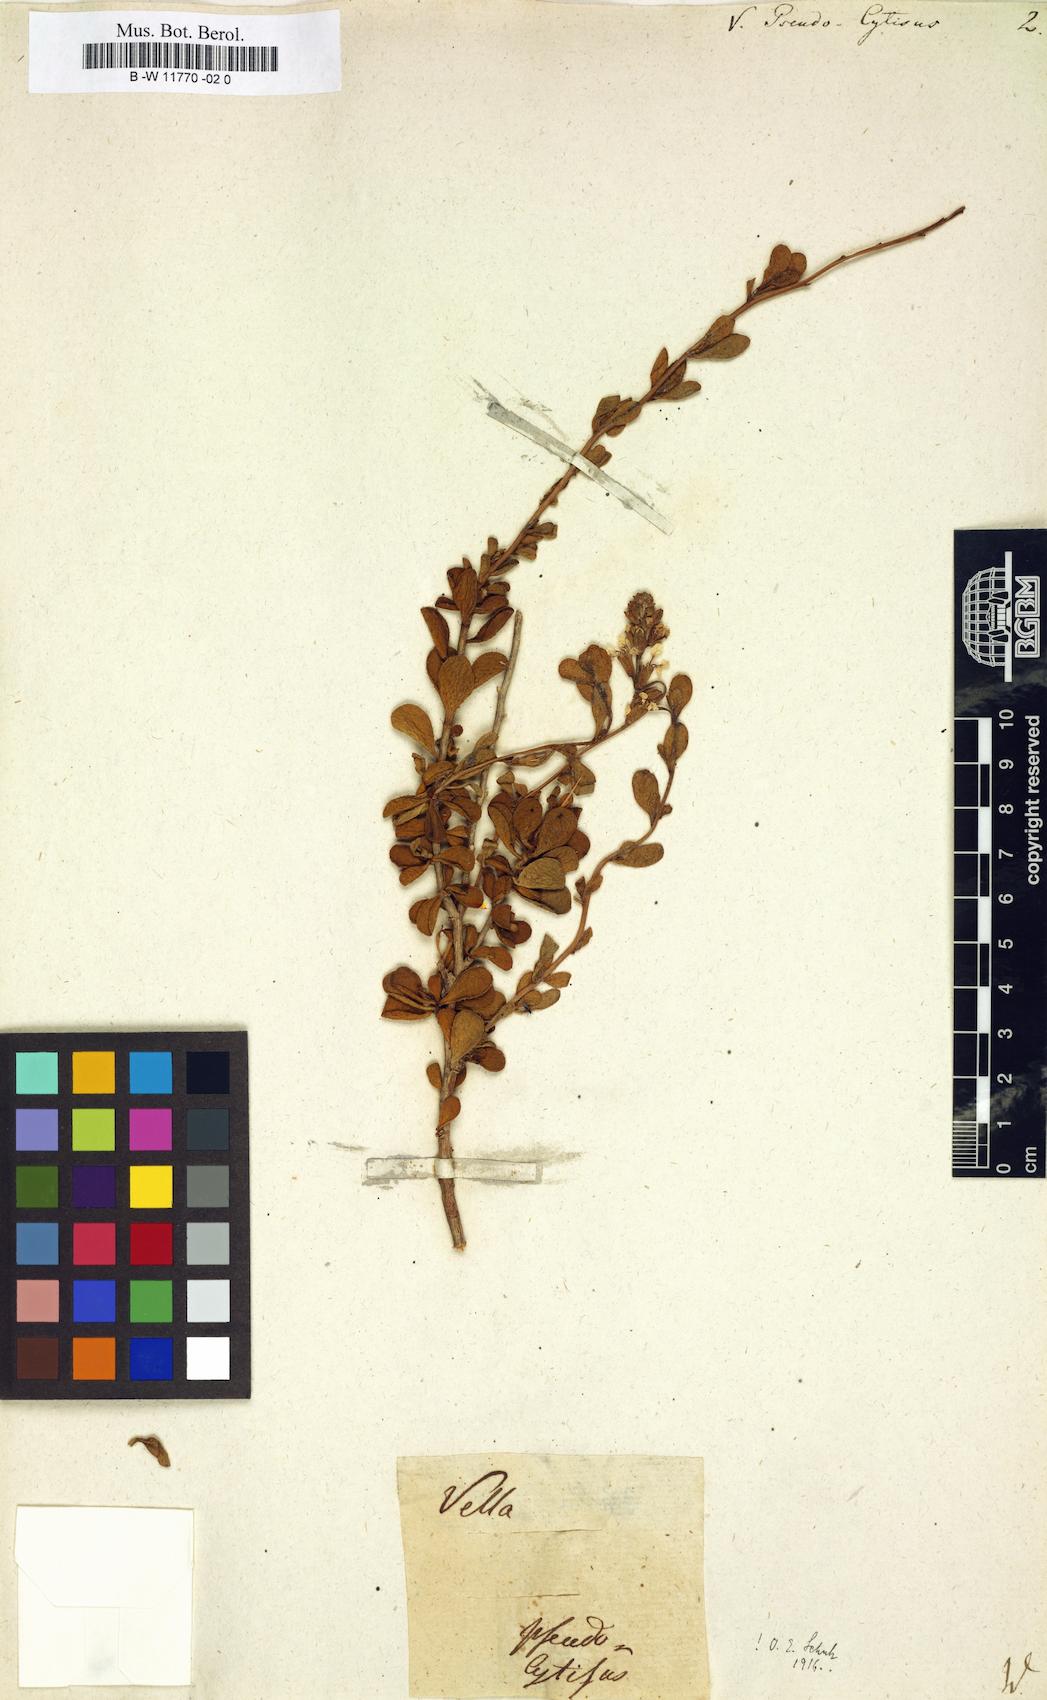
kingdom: Plantae
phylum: Tracheophyta
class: Magnoliopsida
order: Brassicales
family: Brassicaceae
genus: Vella
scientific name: Vella pseudocytisus
